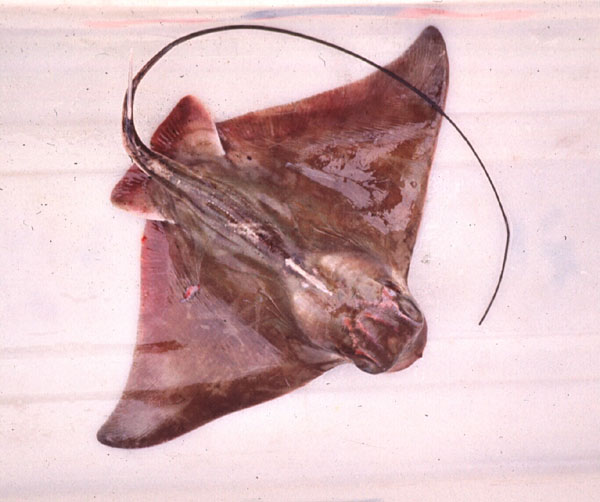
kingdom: Animalia
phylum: Chordata
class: Elasmobranchii
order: Myliobatiformes
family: Myliobatidae
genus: Myliobatis
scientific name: Myliobatis aquila
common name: Eagle ray
